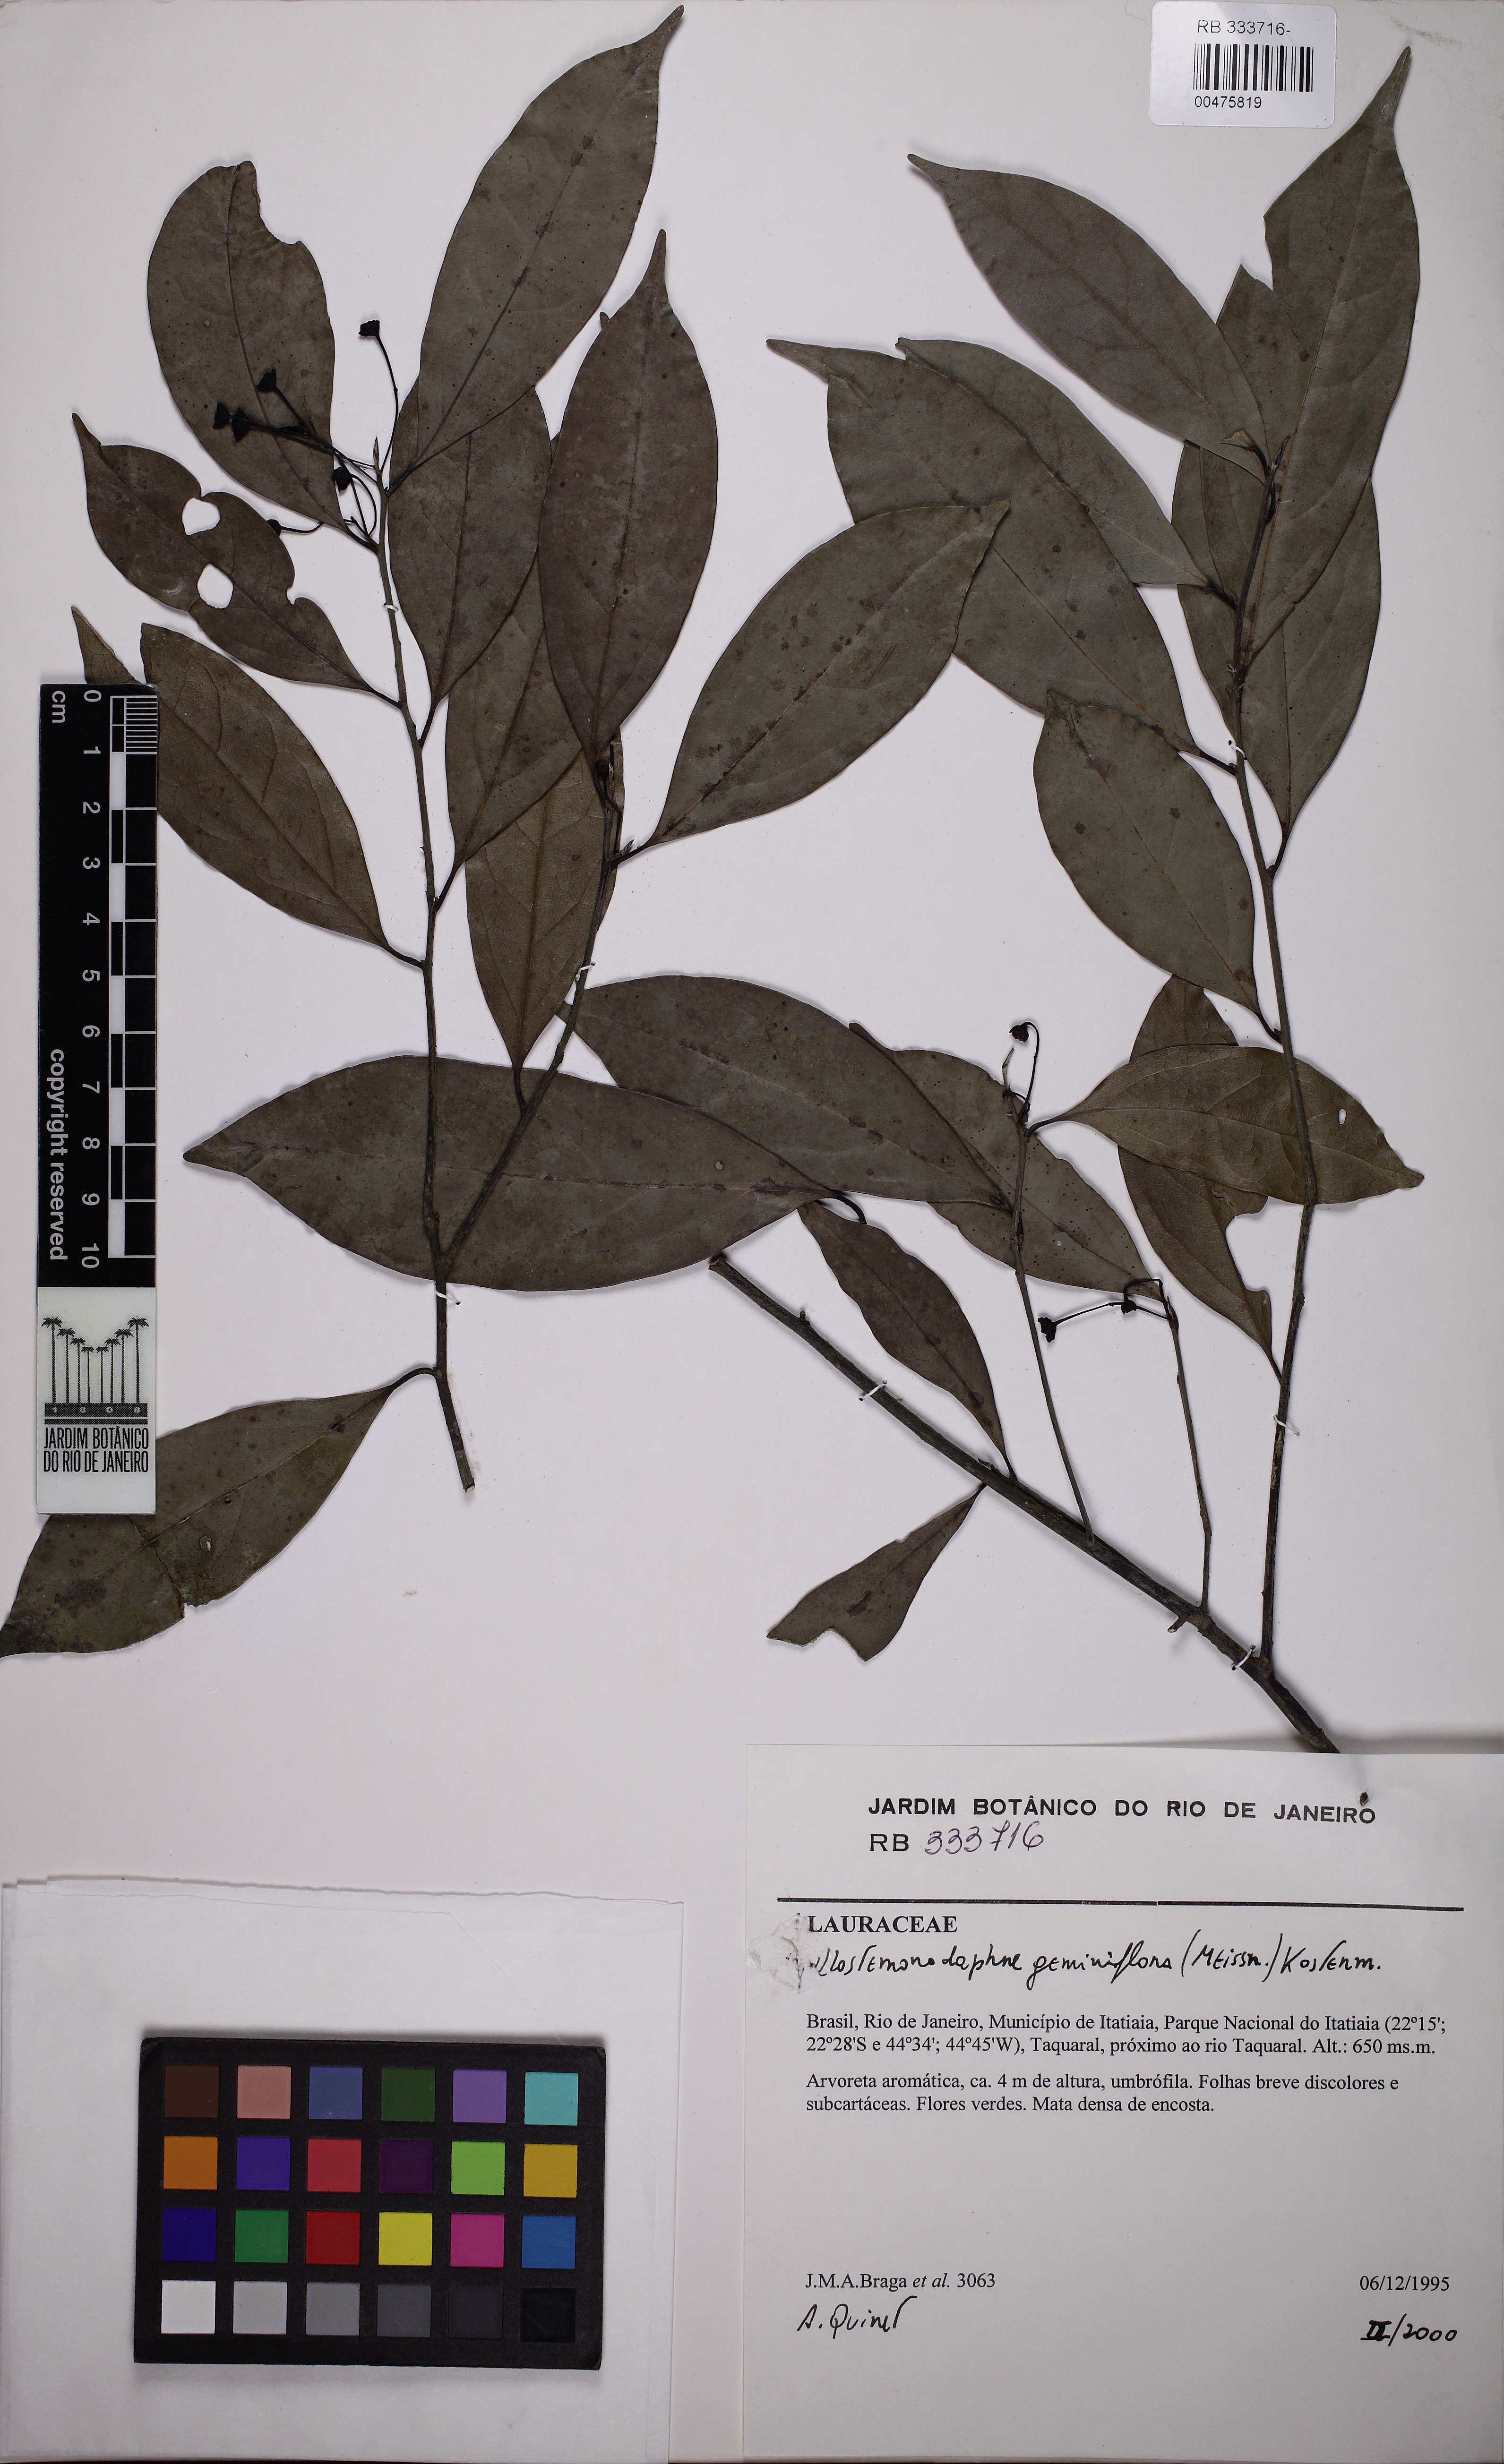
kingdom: Plantae
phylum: Tracheophyta
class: Magnoliopsida
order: Laurales
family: Lauraceae
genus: Phyllostemonodaphne
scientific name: Phyllostemonodaphne geminiflora
